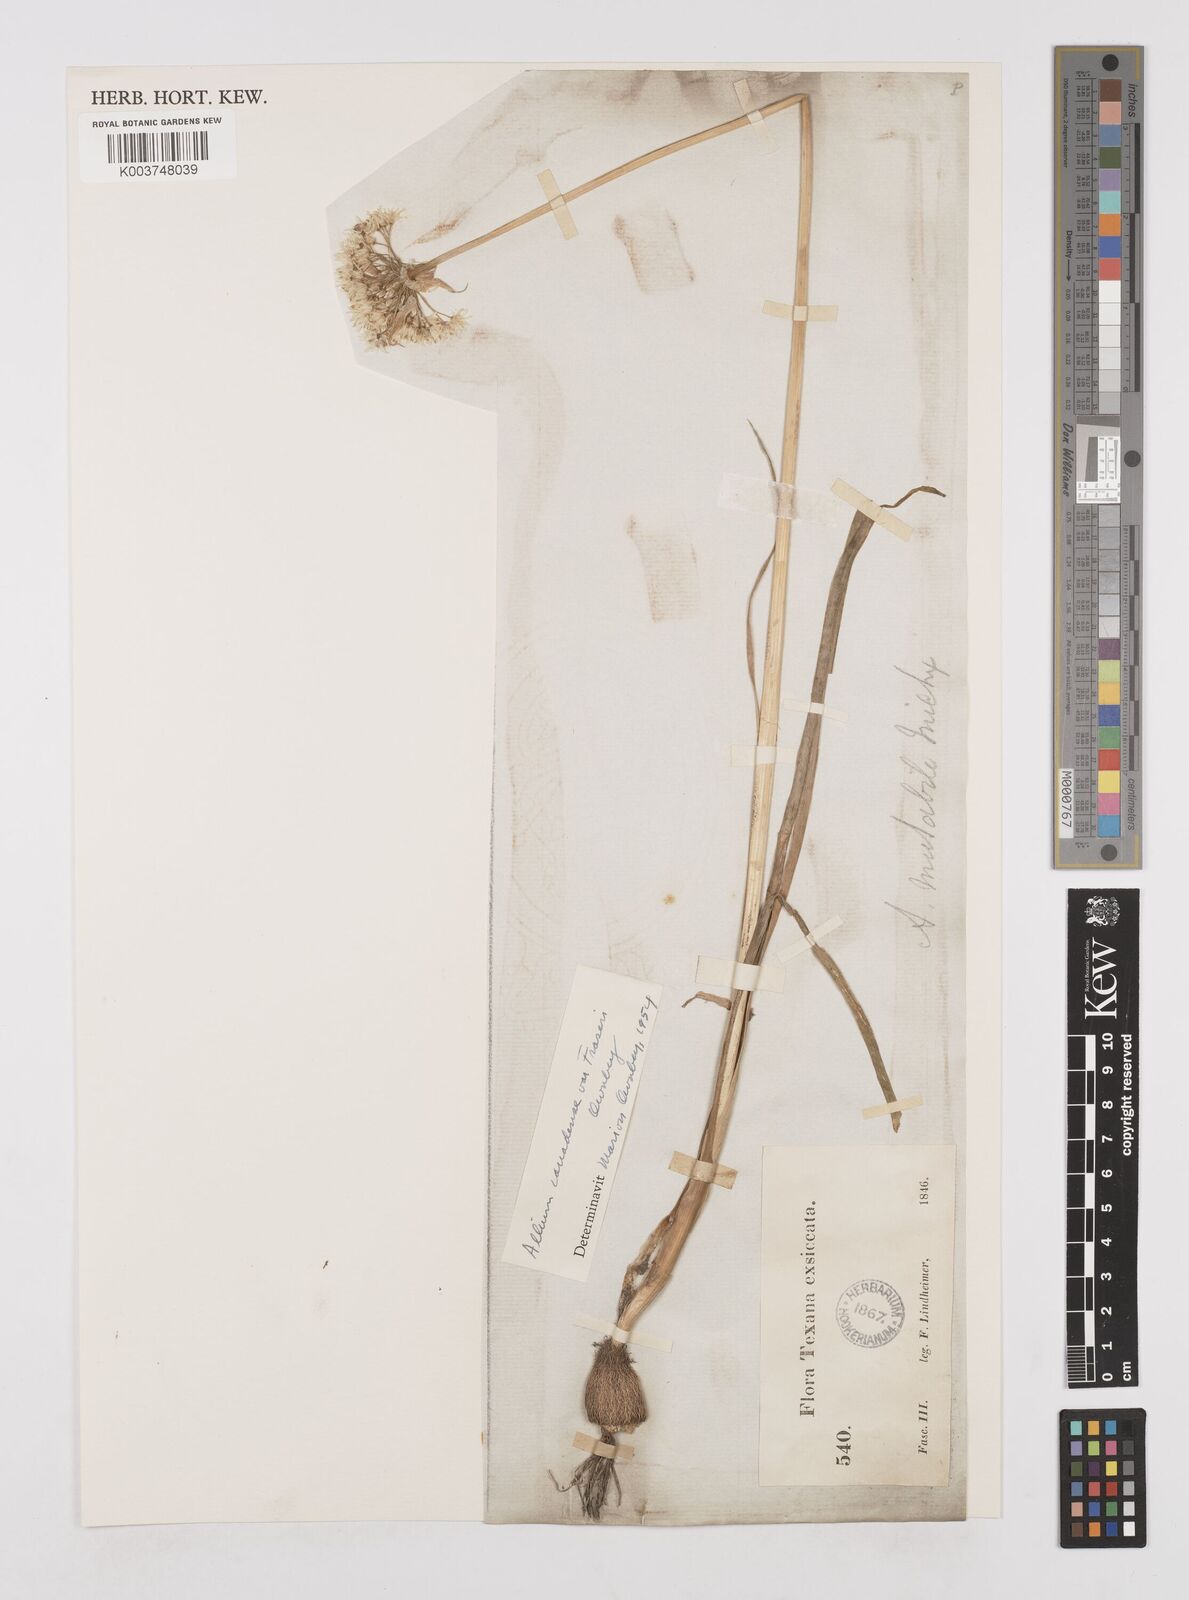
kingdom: Plantae
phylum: Tracheophyta
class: Liliopsida
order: Asparagales
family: Amaryllidaceae
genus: Allium
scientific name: Allium fraseri
